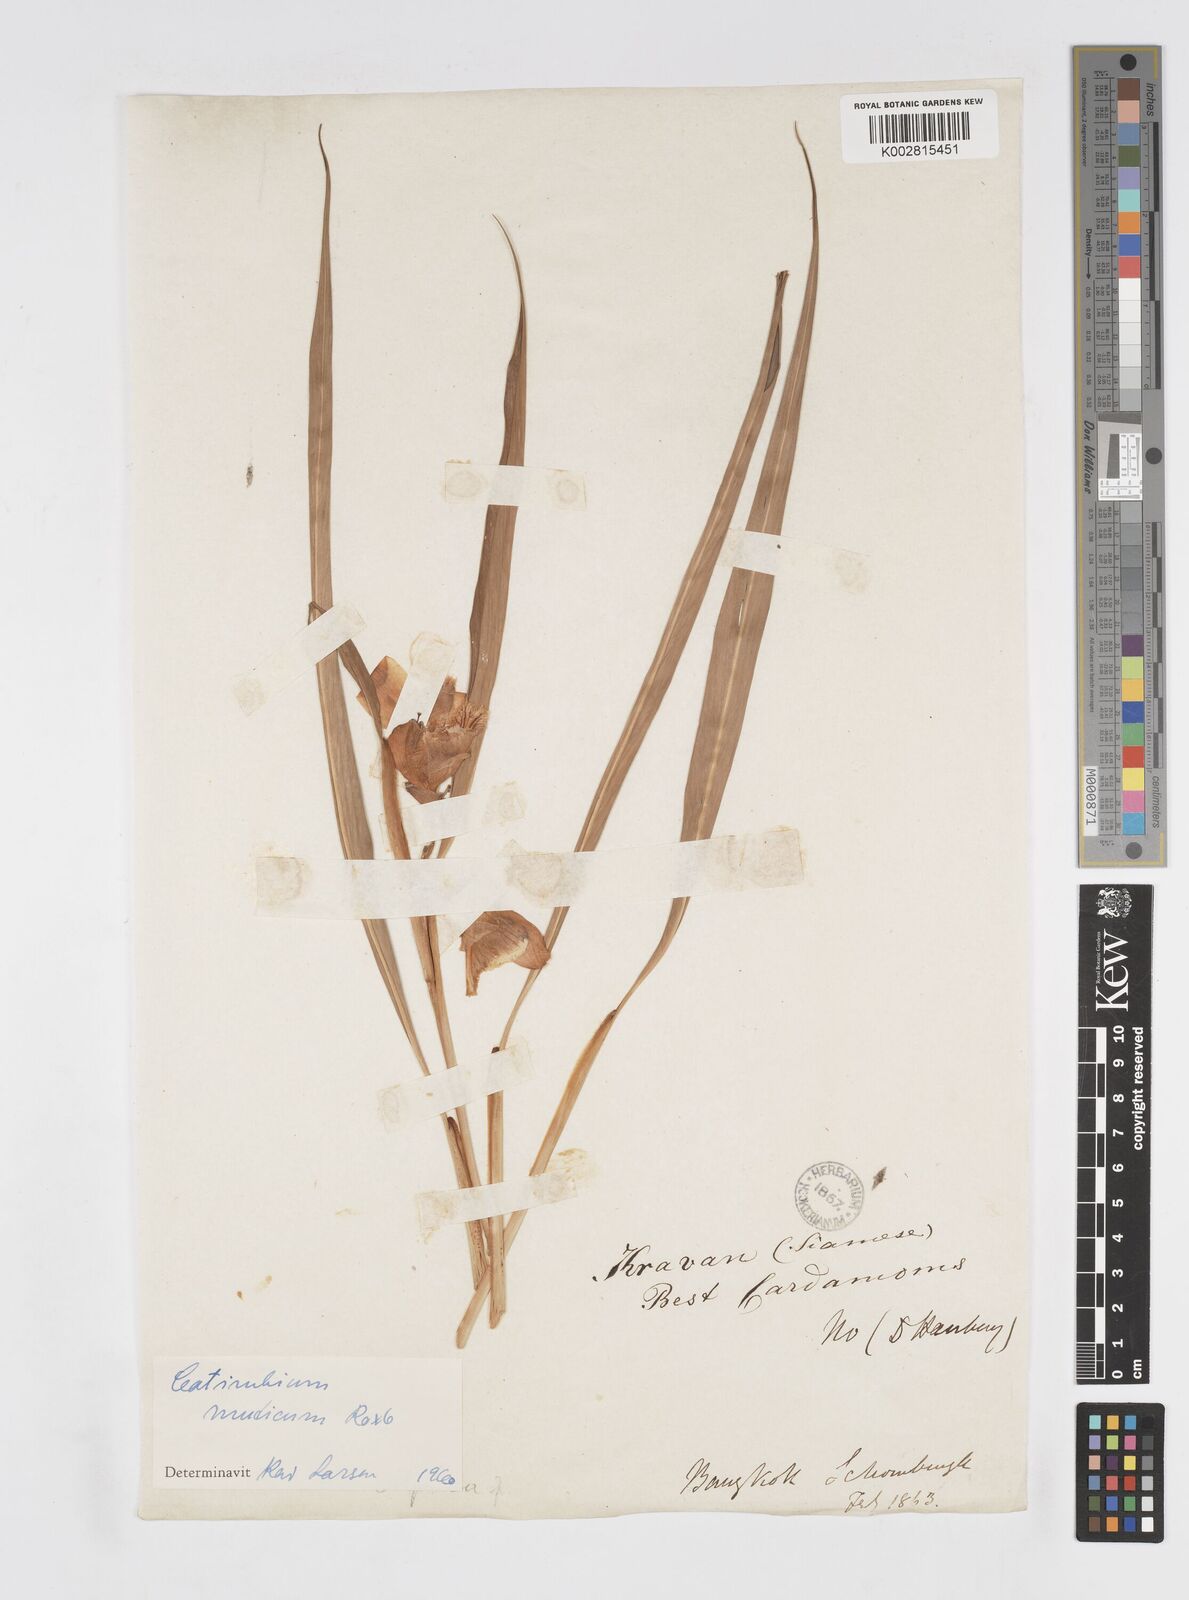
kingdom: Plantae
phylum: Tracheophyta
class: Liliopsida
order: Zingiberales
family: Zingiberaceae
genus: Alpinia
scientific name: Alpinia mutica
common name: Small shell ginger
